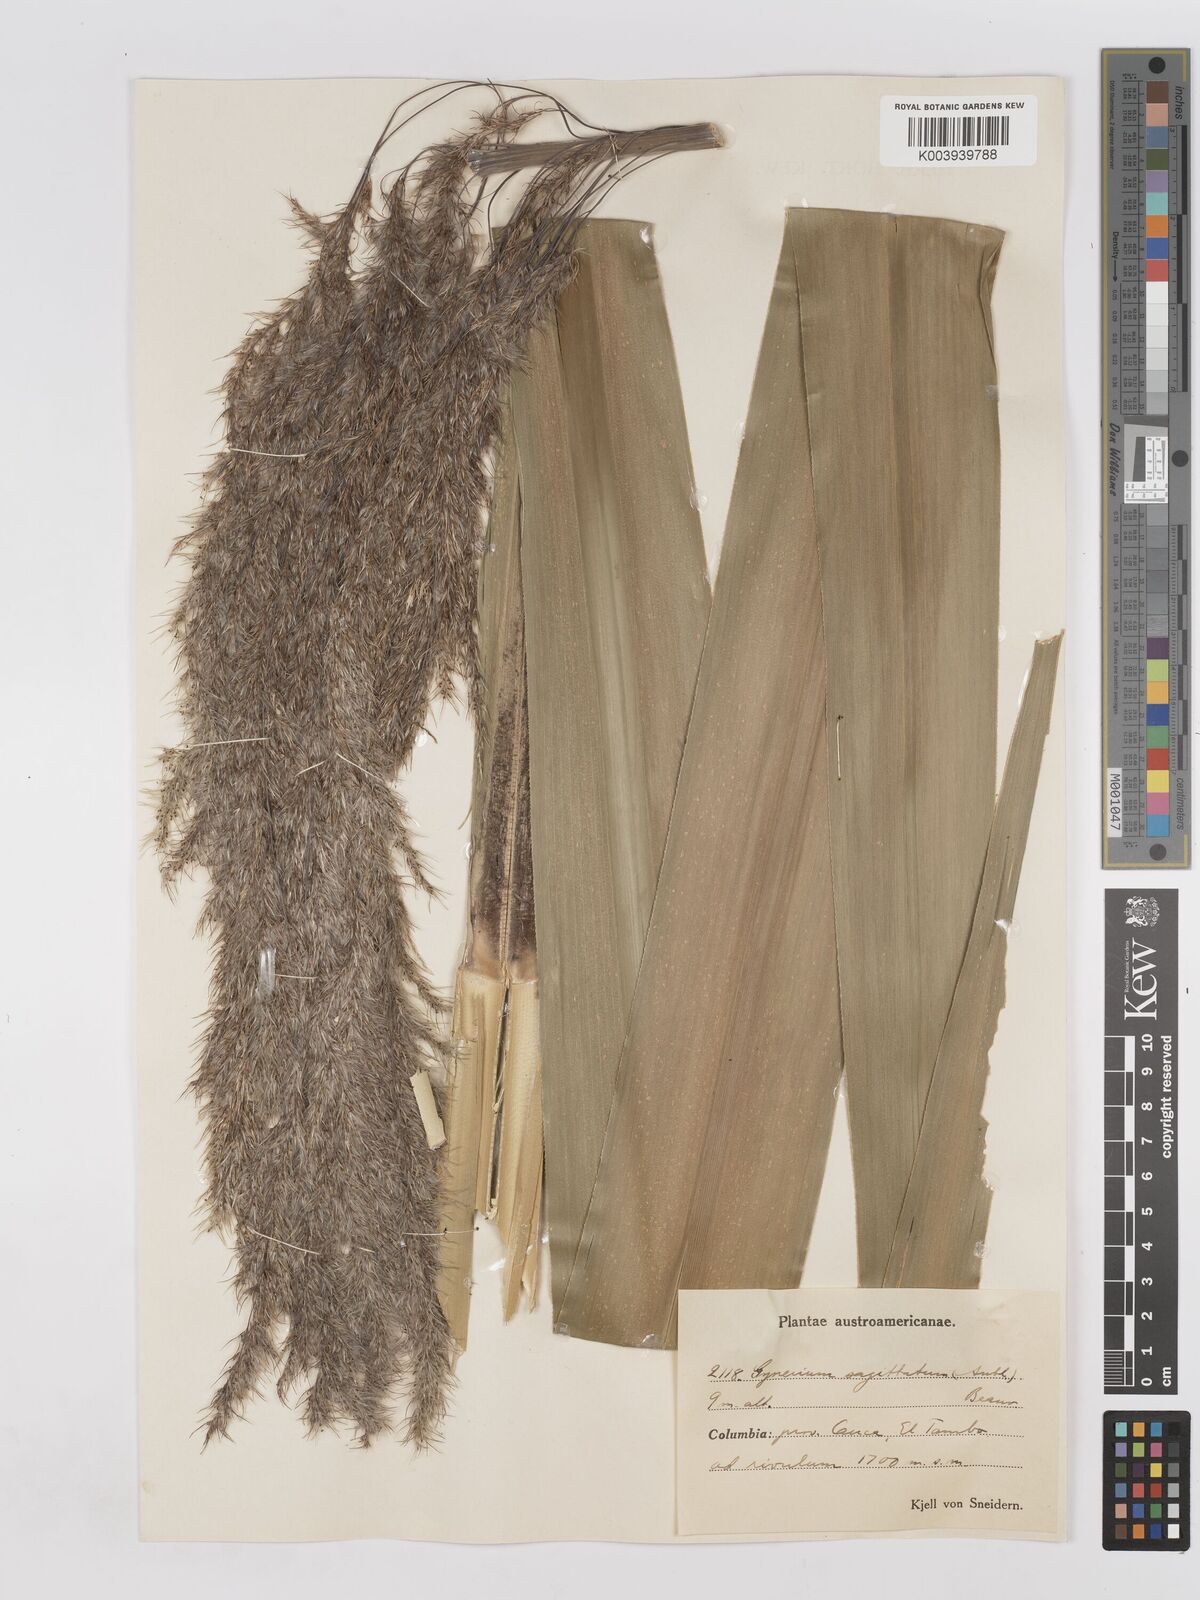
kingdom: Plantae
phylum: Tracheophyta
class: Liliopsida
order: Poales
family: Poaceae
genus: Gynerium
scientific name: Gynerium sagittatum
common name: Wild cane
